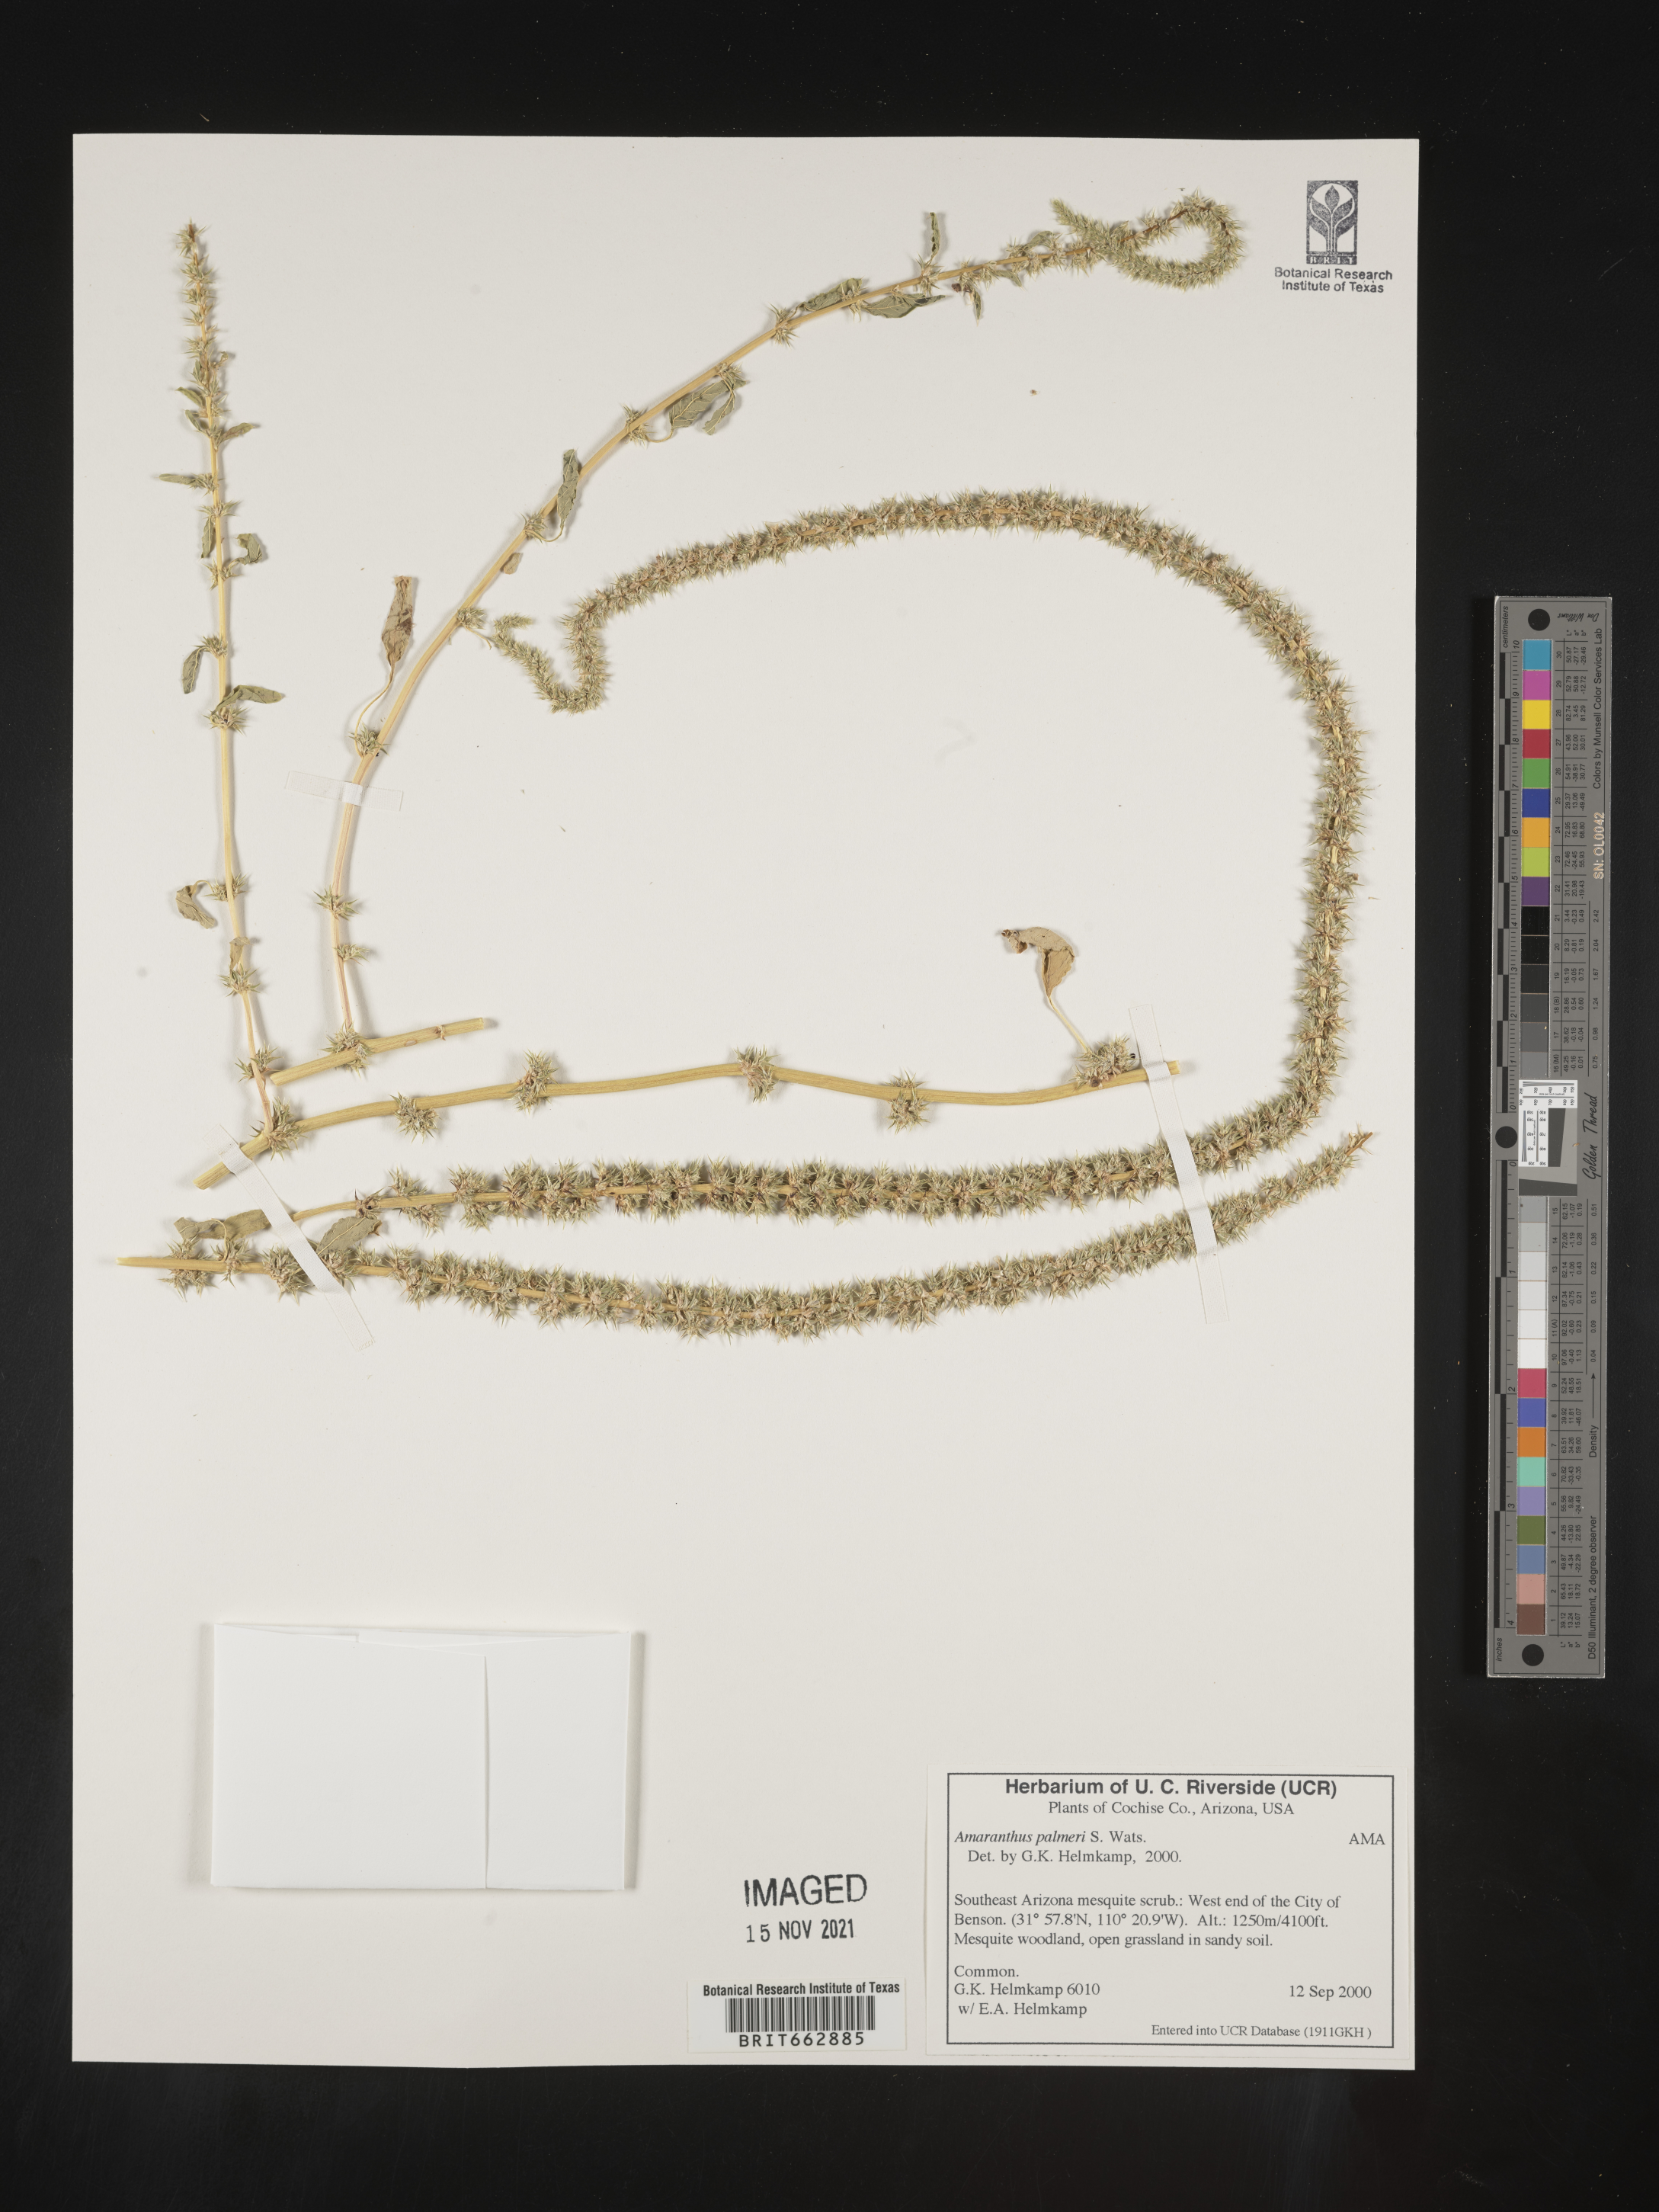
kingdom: Plantae
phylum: Tracheophyta
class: Magnoliopsida
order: Caryophyllales
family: Amaranthaceae
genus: Amaranthus
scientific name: Amaranthus palmeri
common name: Dioecious amaranth
